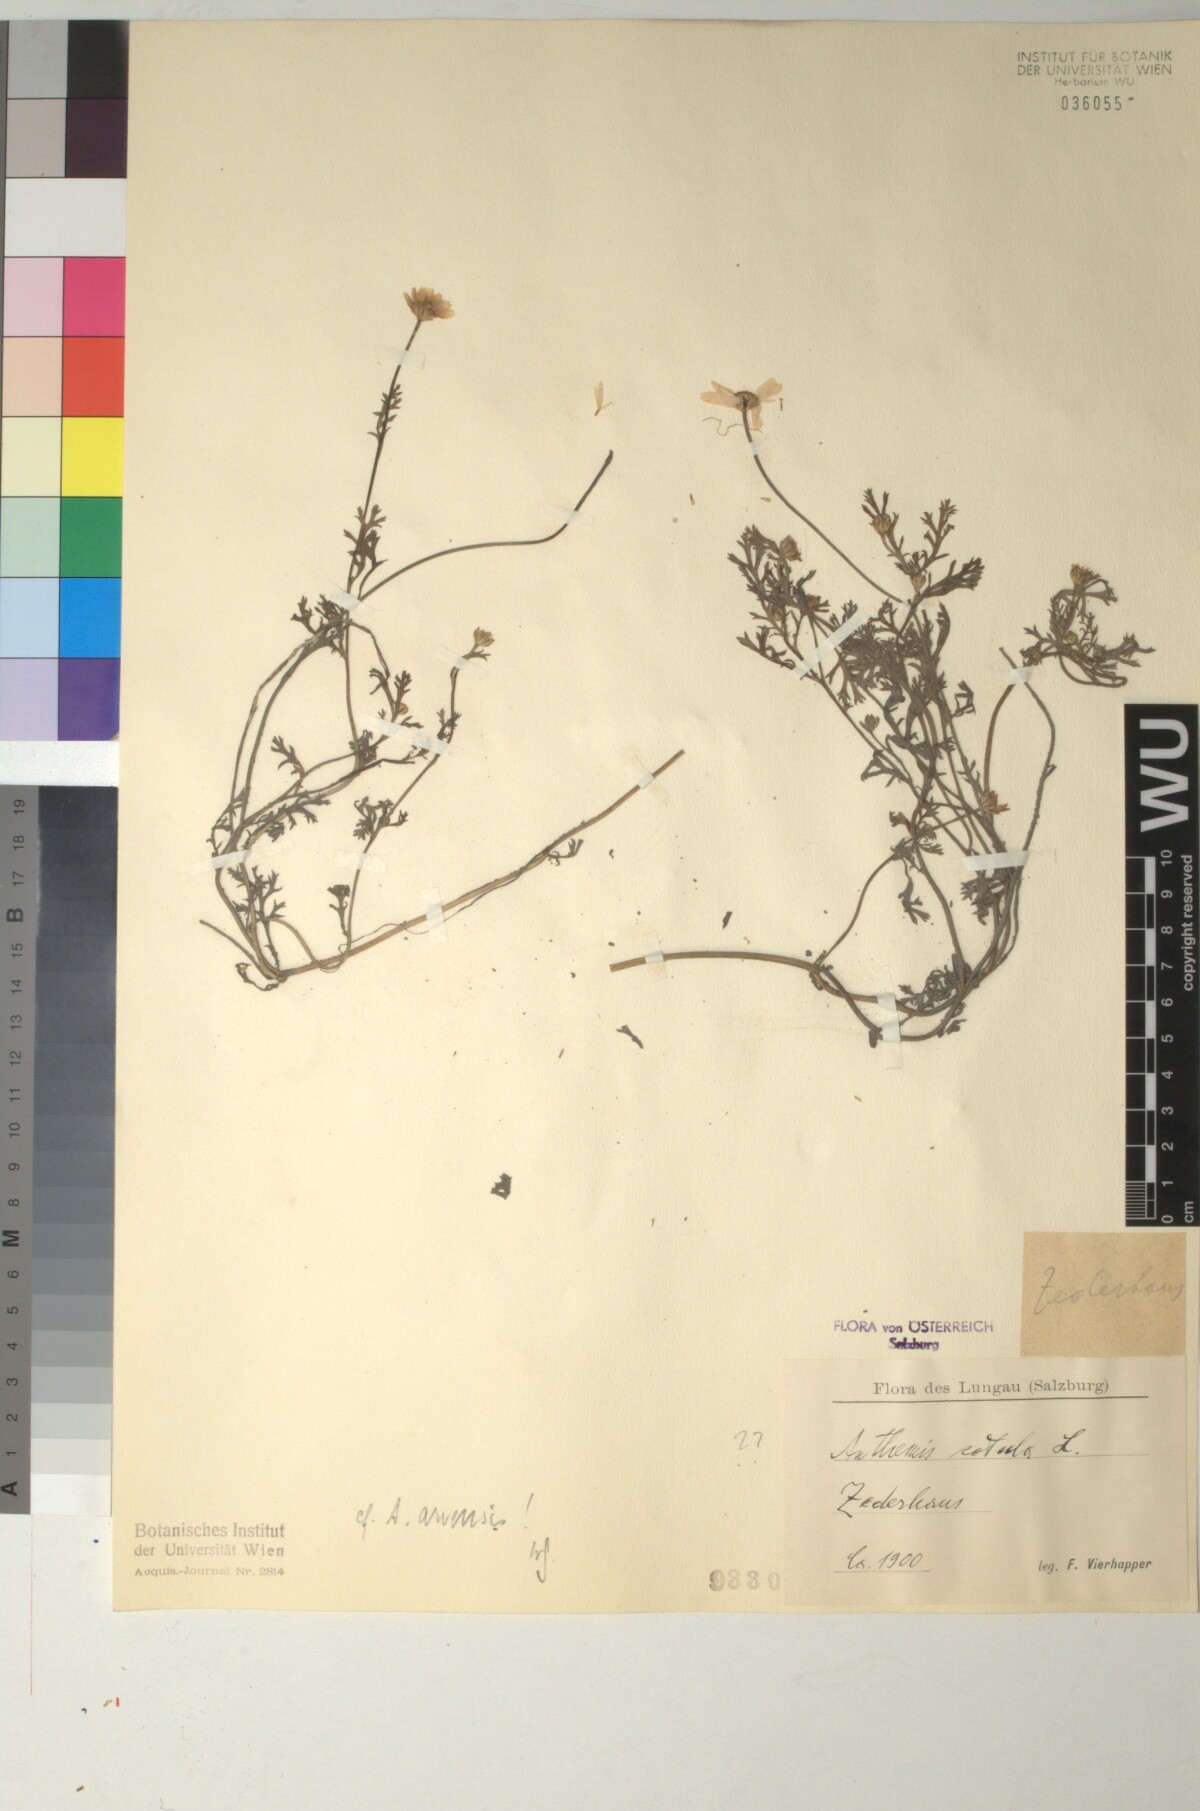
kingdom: Plantae
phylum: Tracheophyta
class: Magnoliopsida
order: Asterales
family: Asteraceae
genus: Anthemis
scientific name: Anthemis cotula
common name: Stinking chamomile
